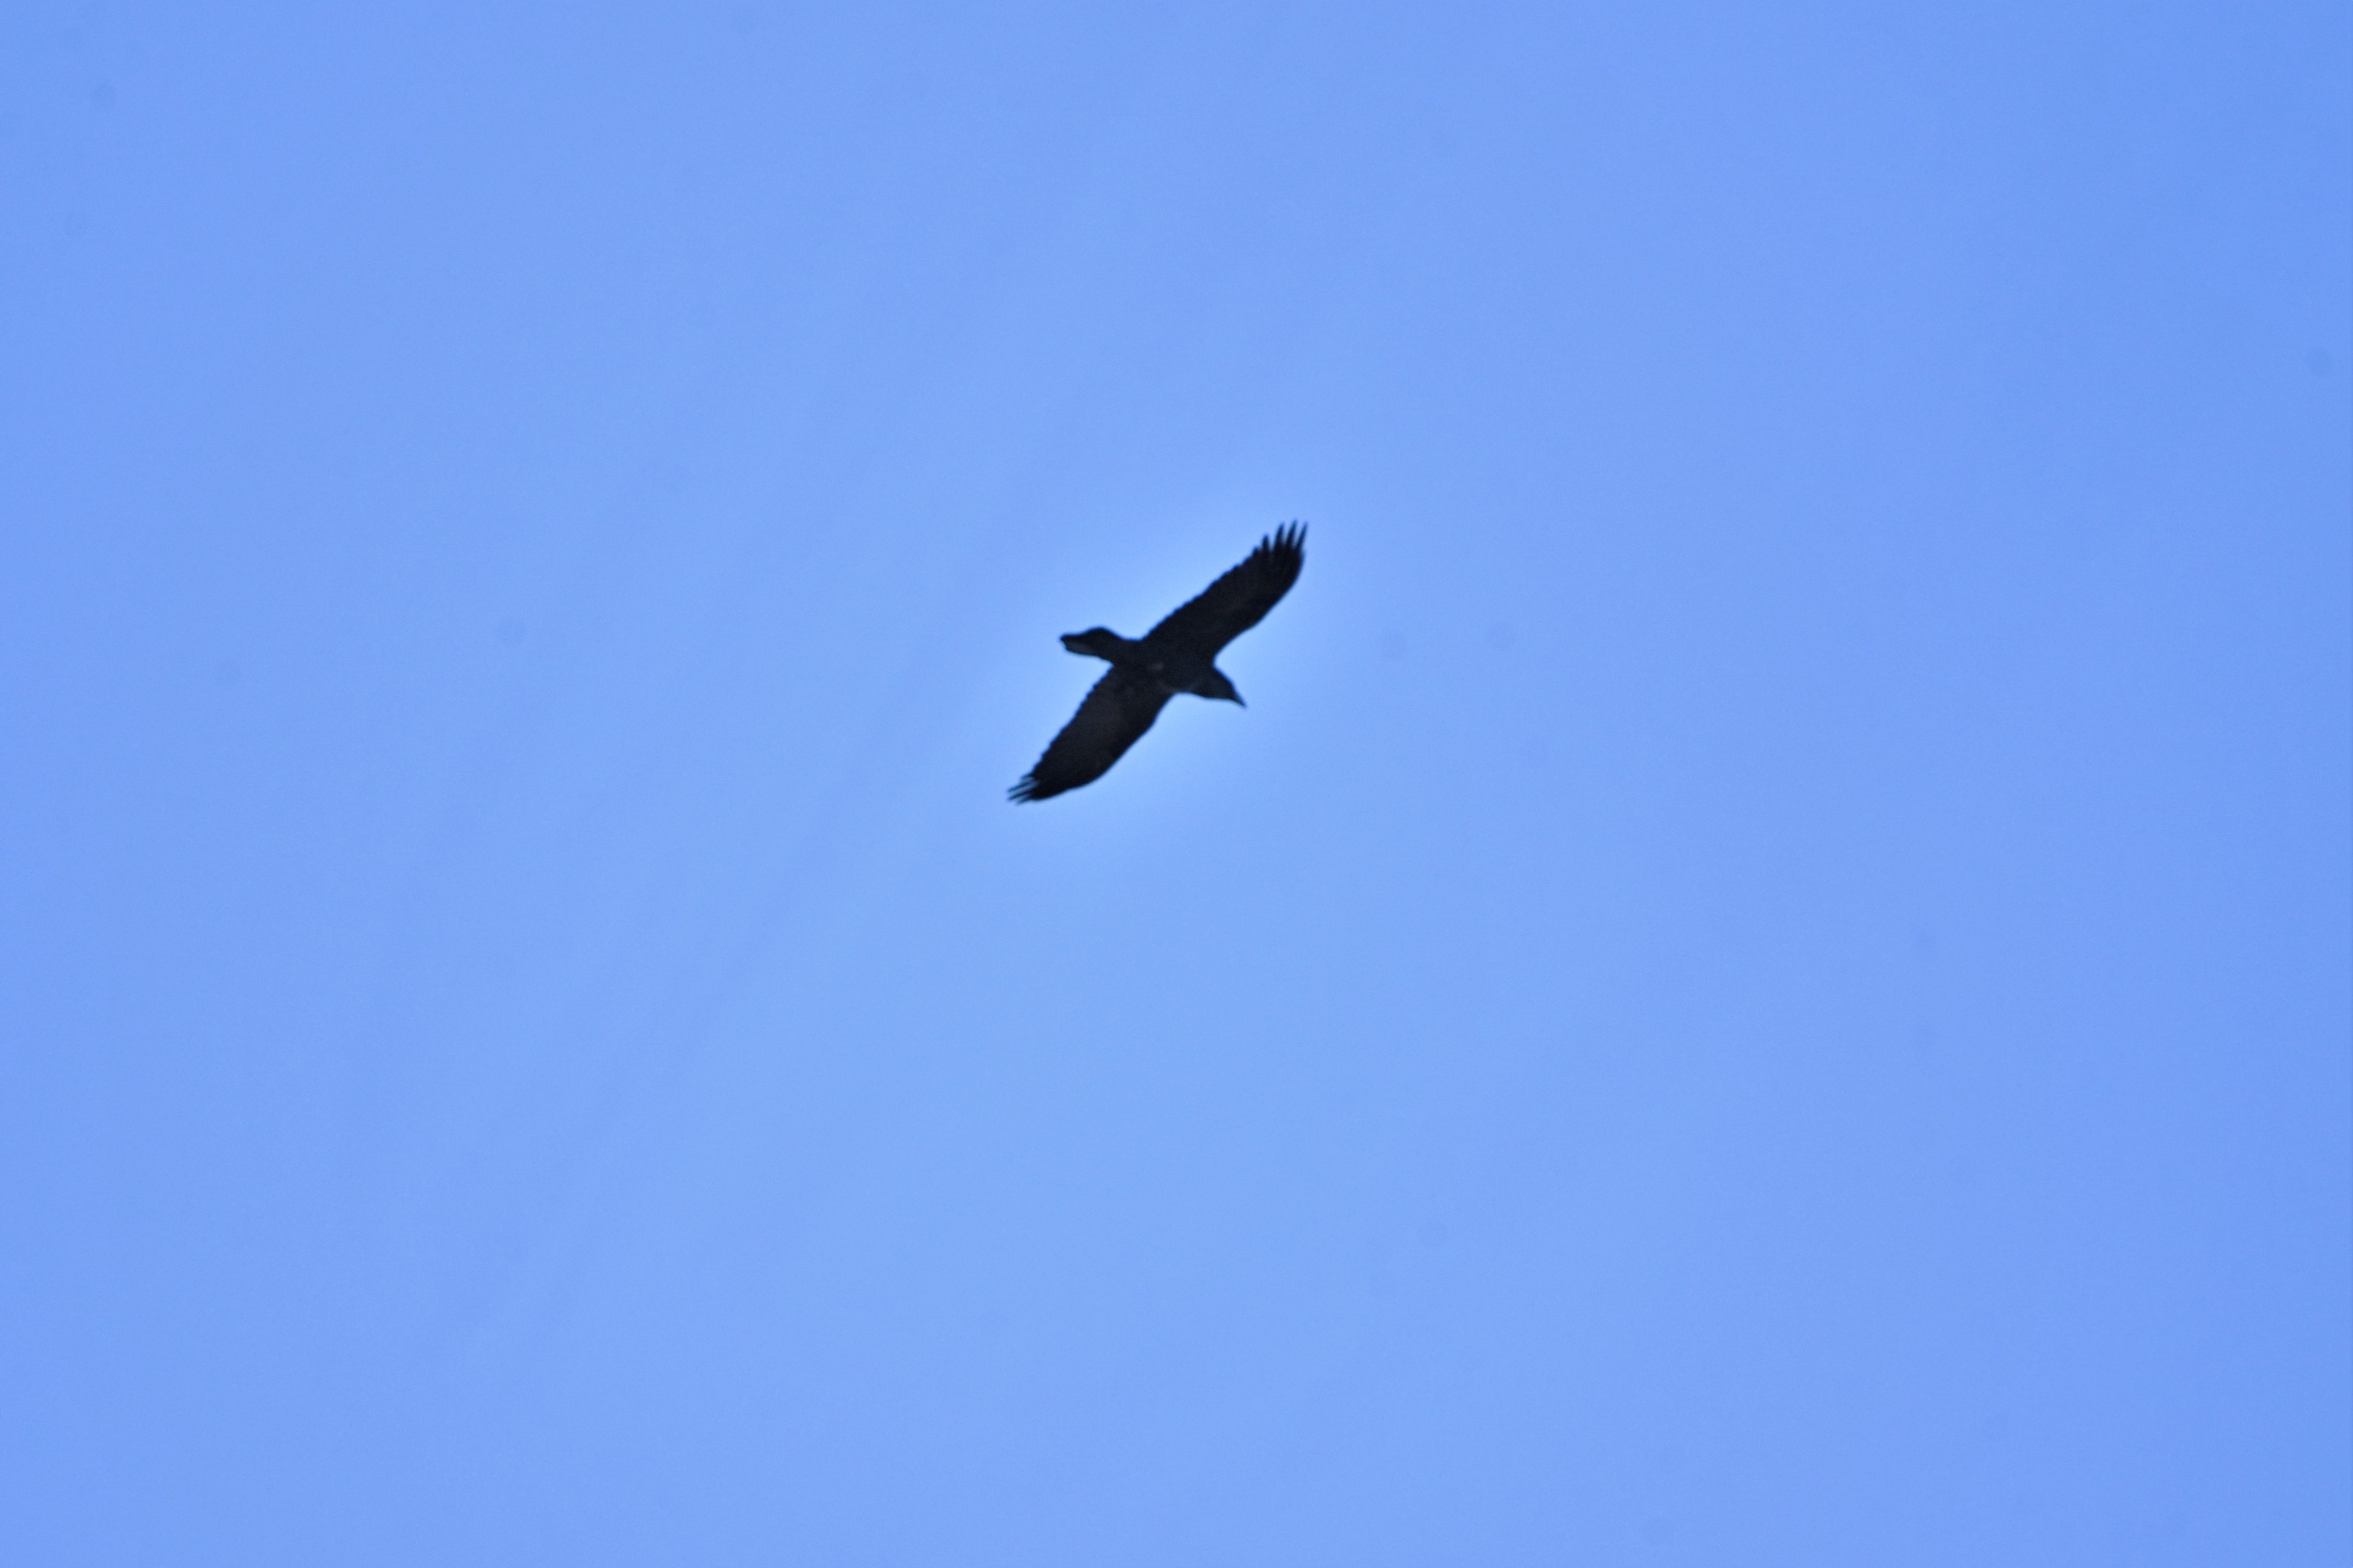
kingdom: Animalia
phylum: Chordata
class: Aves
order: Passeriformes
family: Corvidae
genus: Corvus
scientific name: Corvus corax
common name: Ravn
